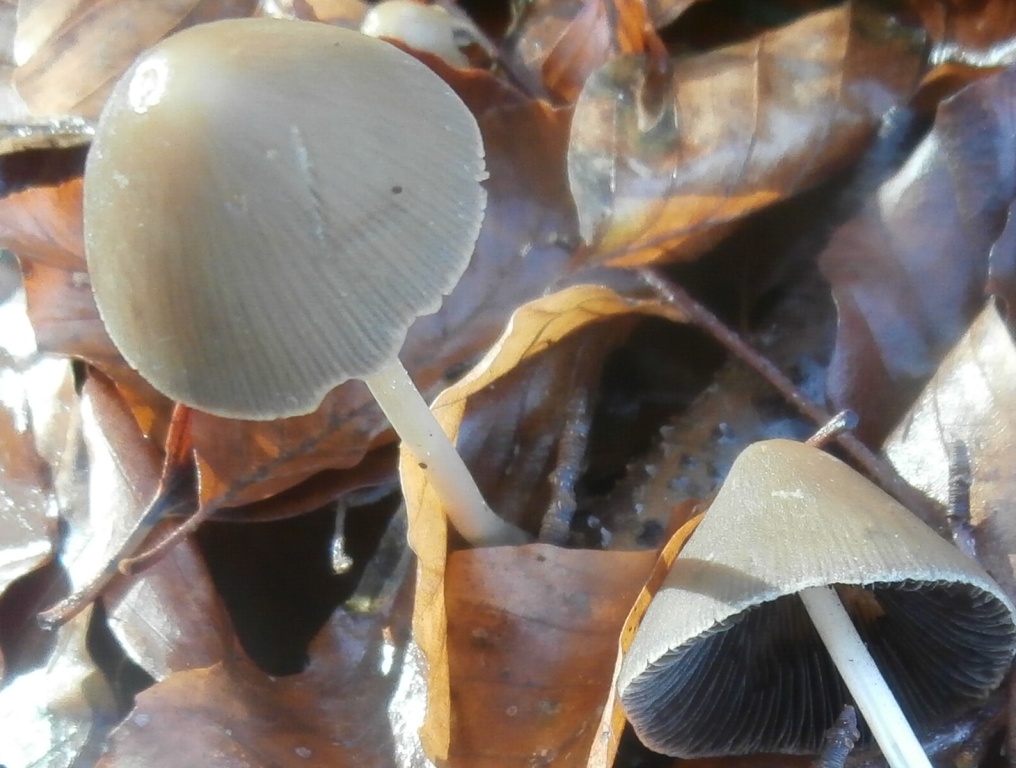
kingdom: Fungi
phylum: Basidiomycota
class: Agaricomycetes
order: Agaricales
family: Psathyrellaceae
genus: Parasola
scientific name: Parasola conopilea
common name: kegle-hjulhat
